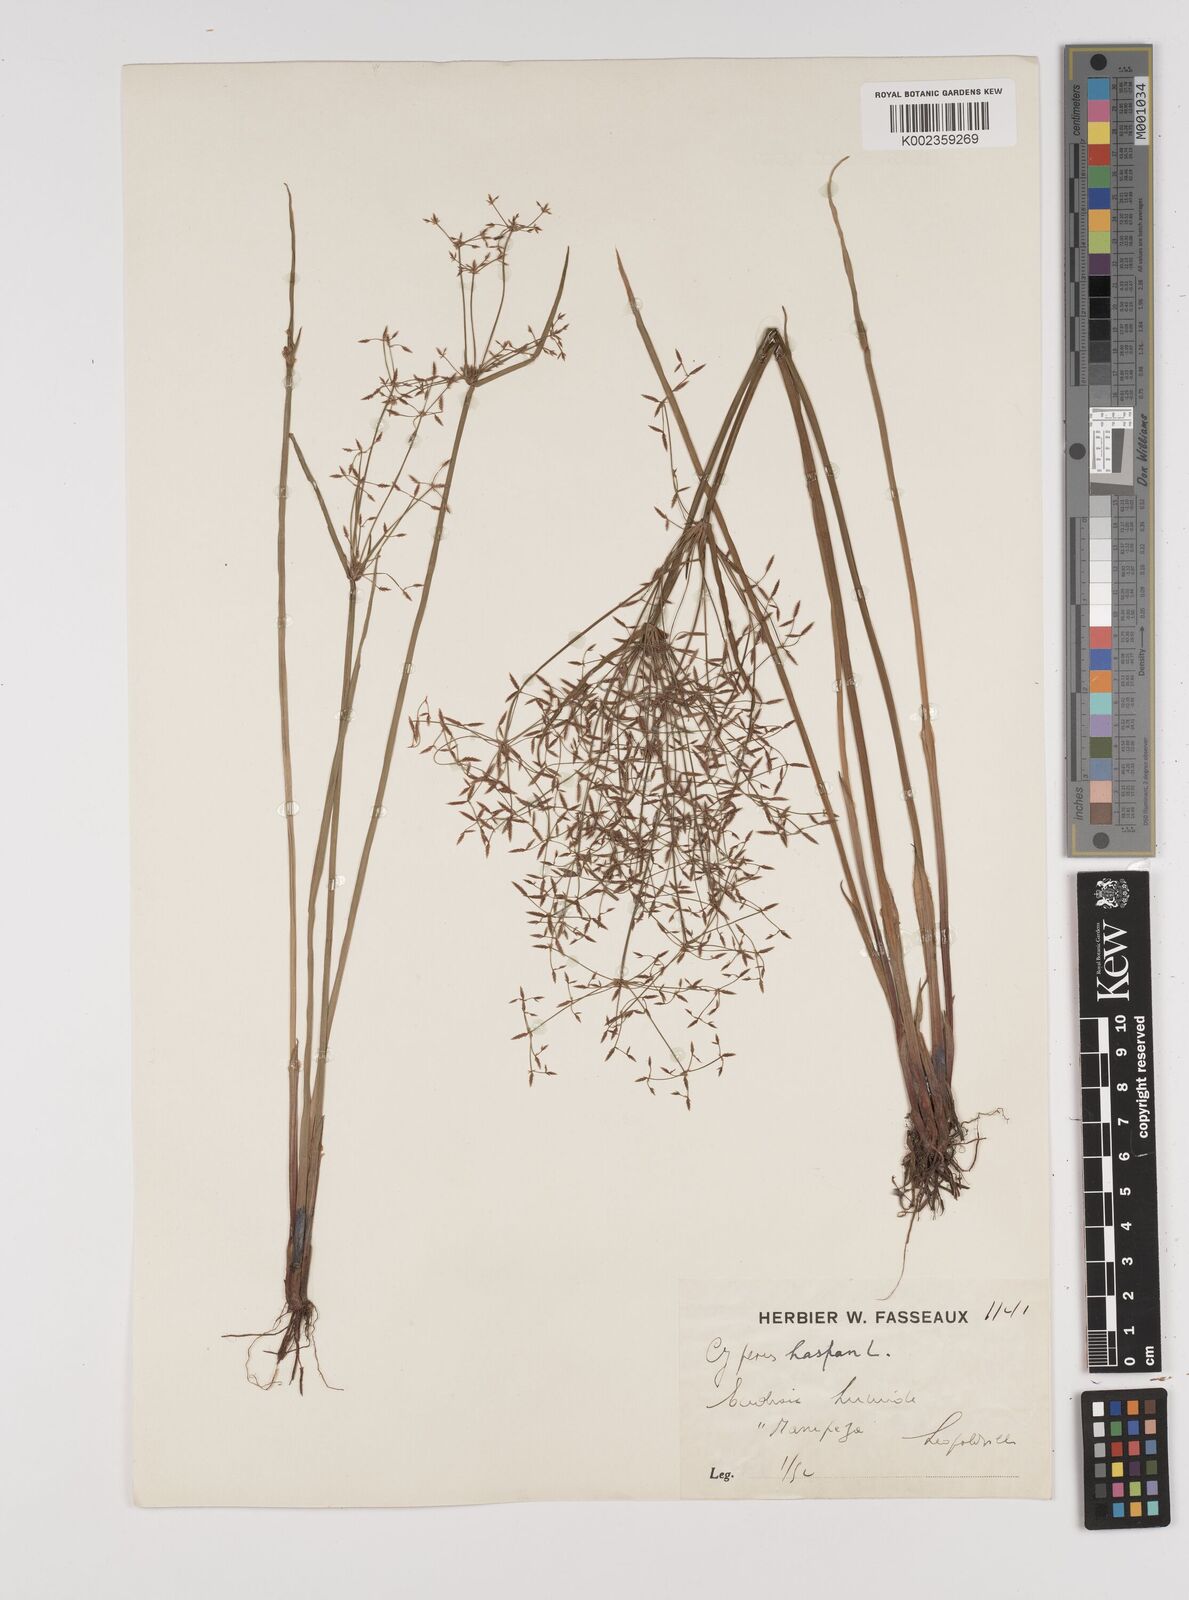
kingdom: Plantae
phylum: Tracheophyta
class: Liliopsida
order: Poales
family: Cyperaceae
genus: Cyperus
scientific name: Cyperus haspan
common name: Haspan flatsedge
